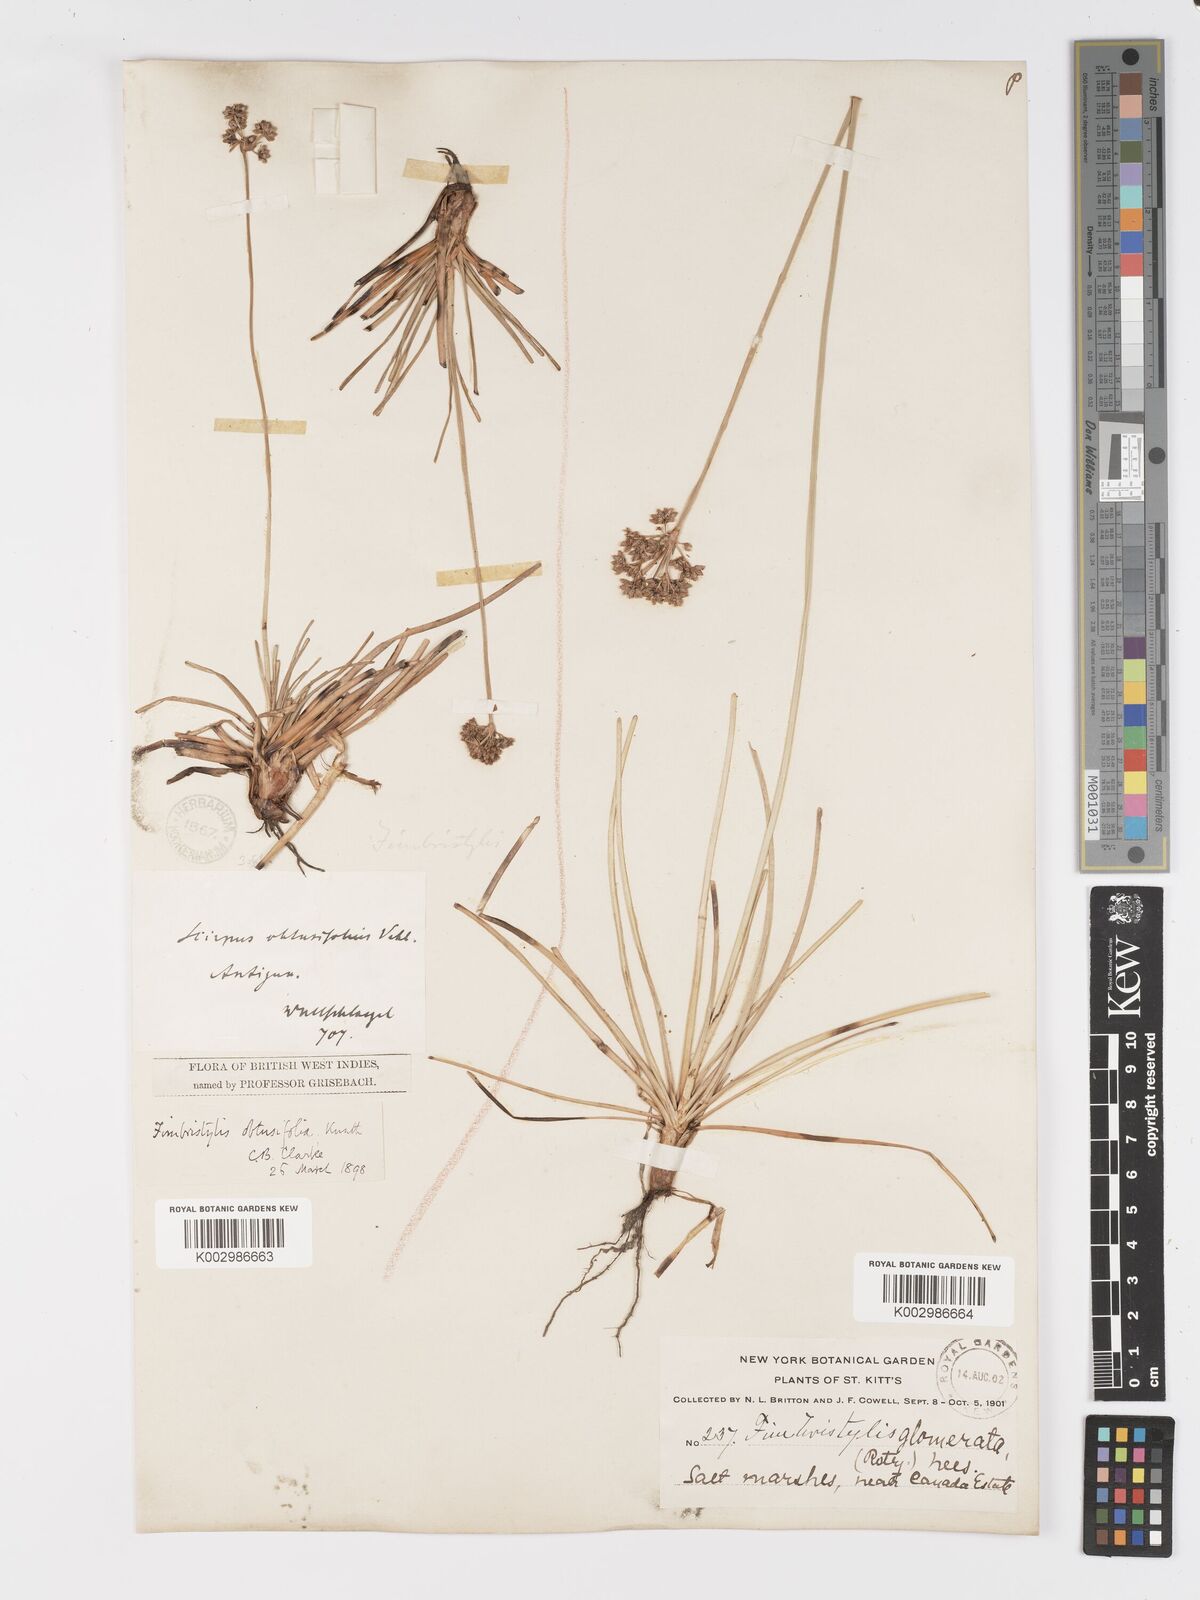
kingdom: Plantae
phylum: Tracheophyta
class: Liliopsida
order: Poales
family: Cyperaceae
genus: Fimbristylis
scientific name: Fimbristylis cymosa
